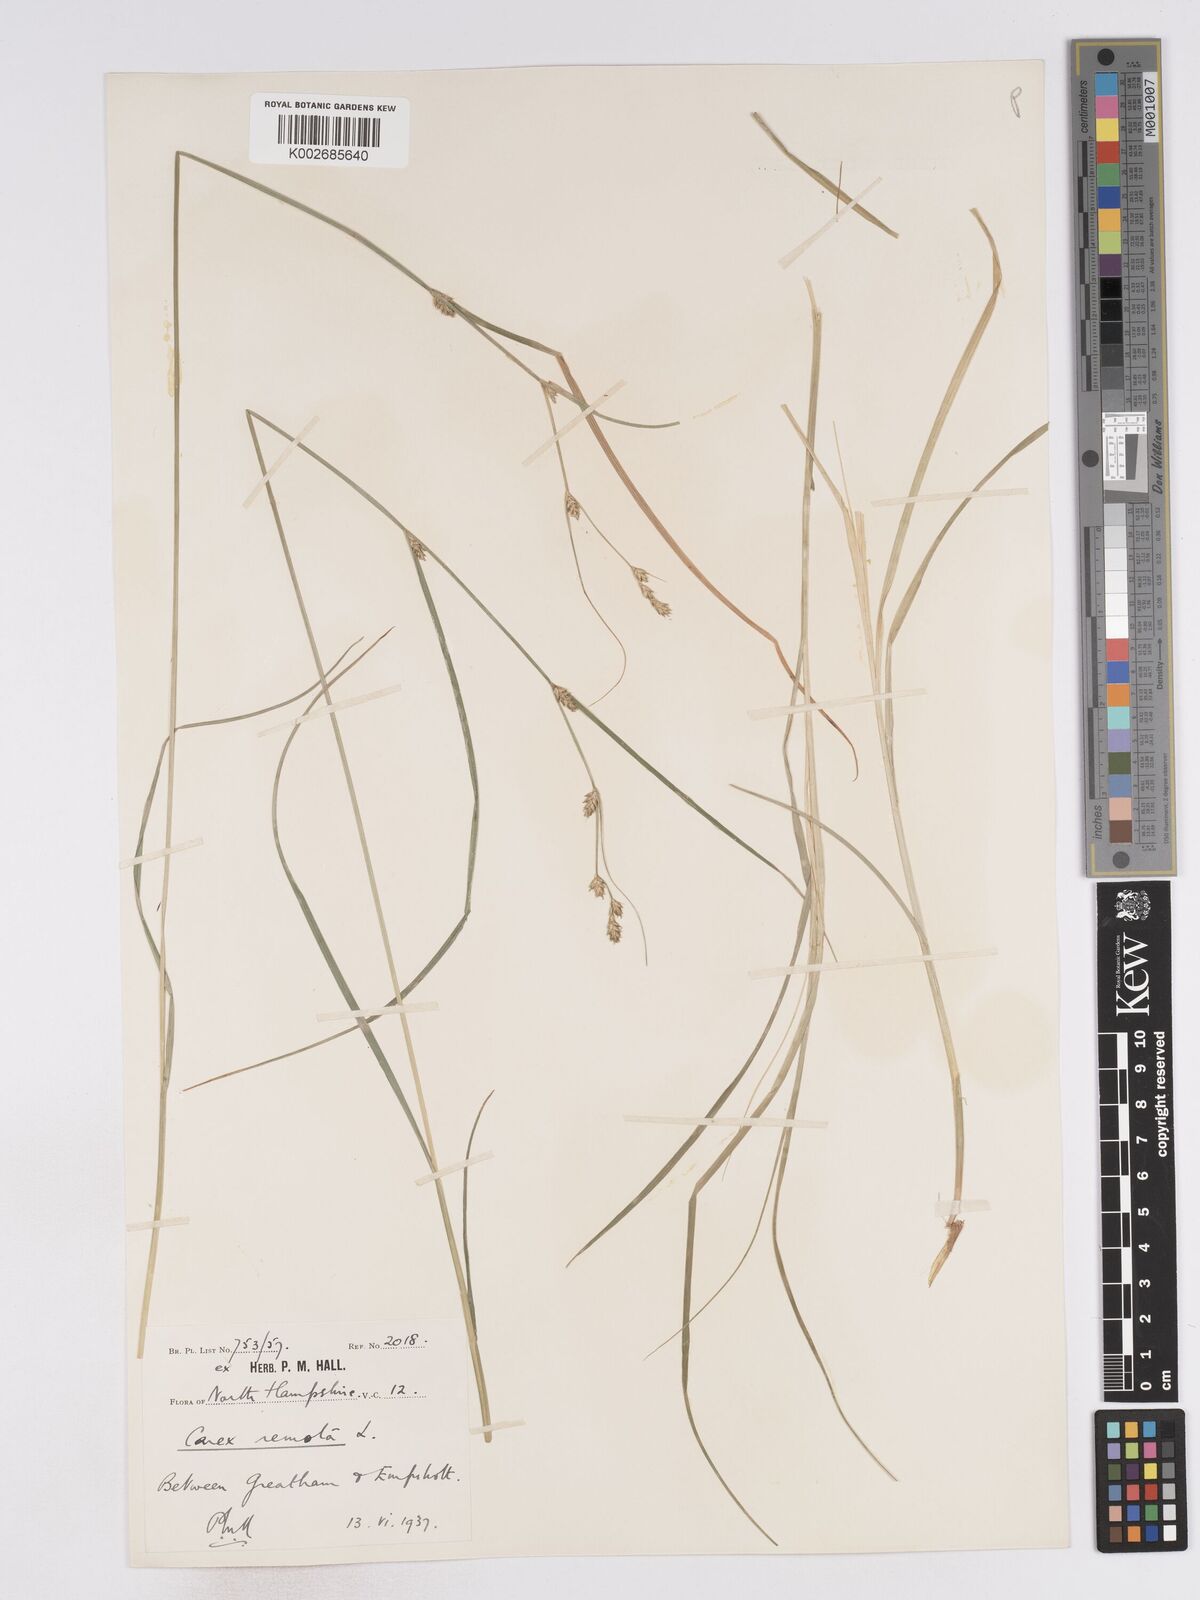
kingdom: Plantae
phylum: Tracheophyta
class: Liliopsida
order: Poales
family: Cyperaceae
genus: Carex
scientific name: Carex remota
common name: Remote sedge
